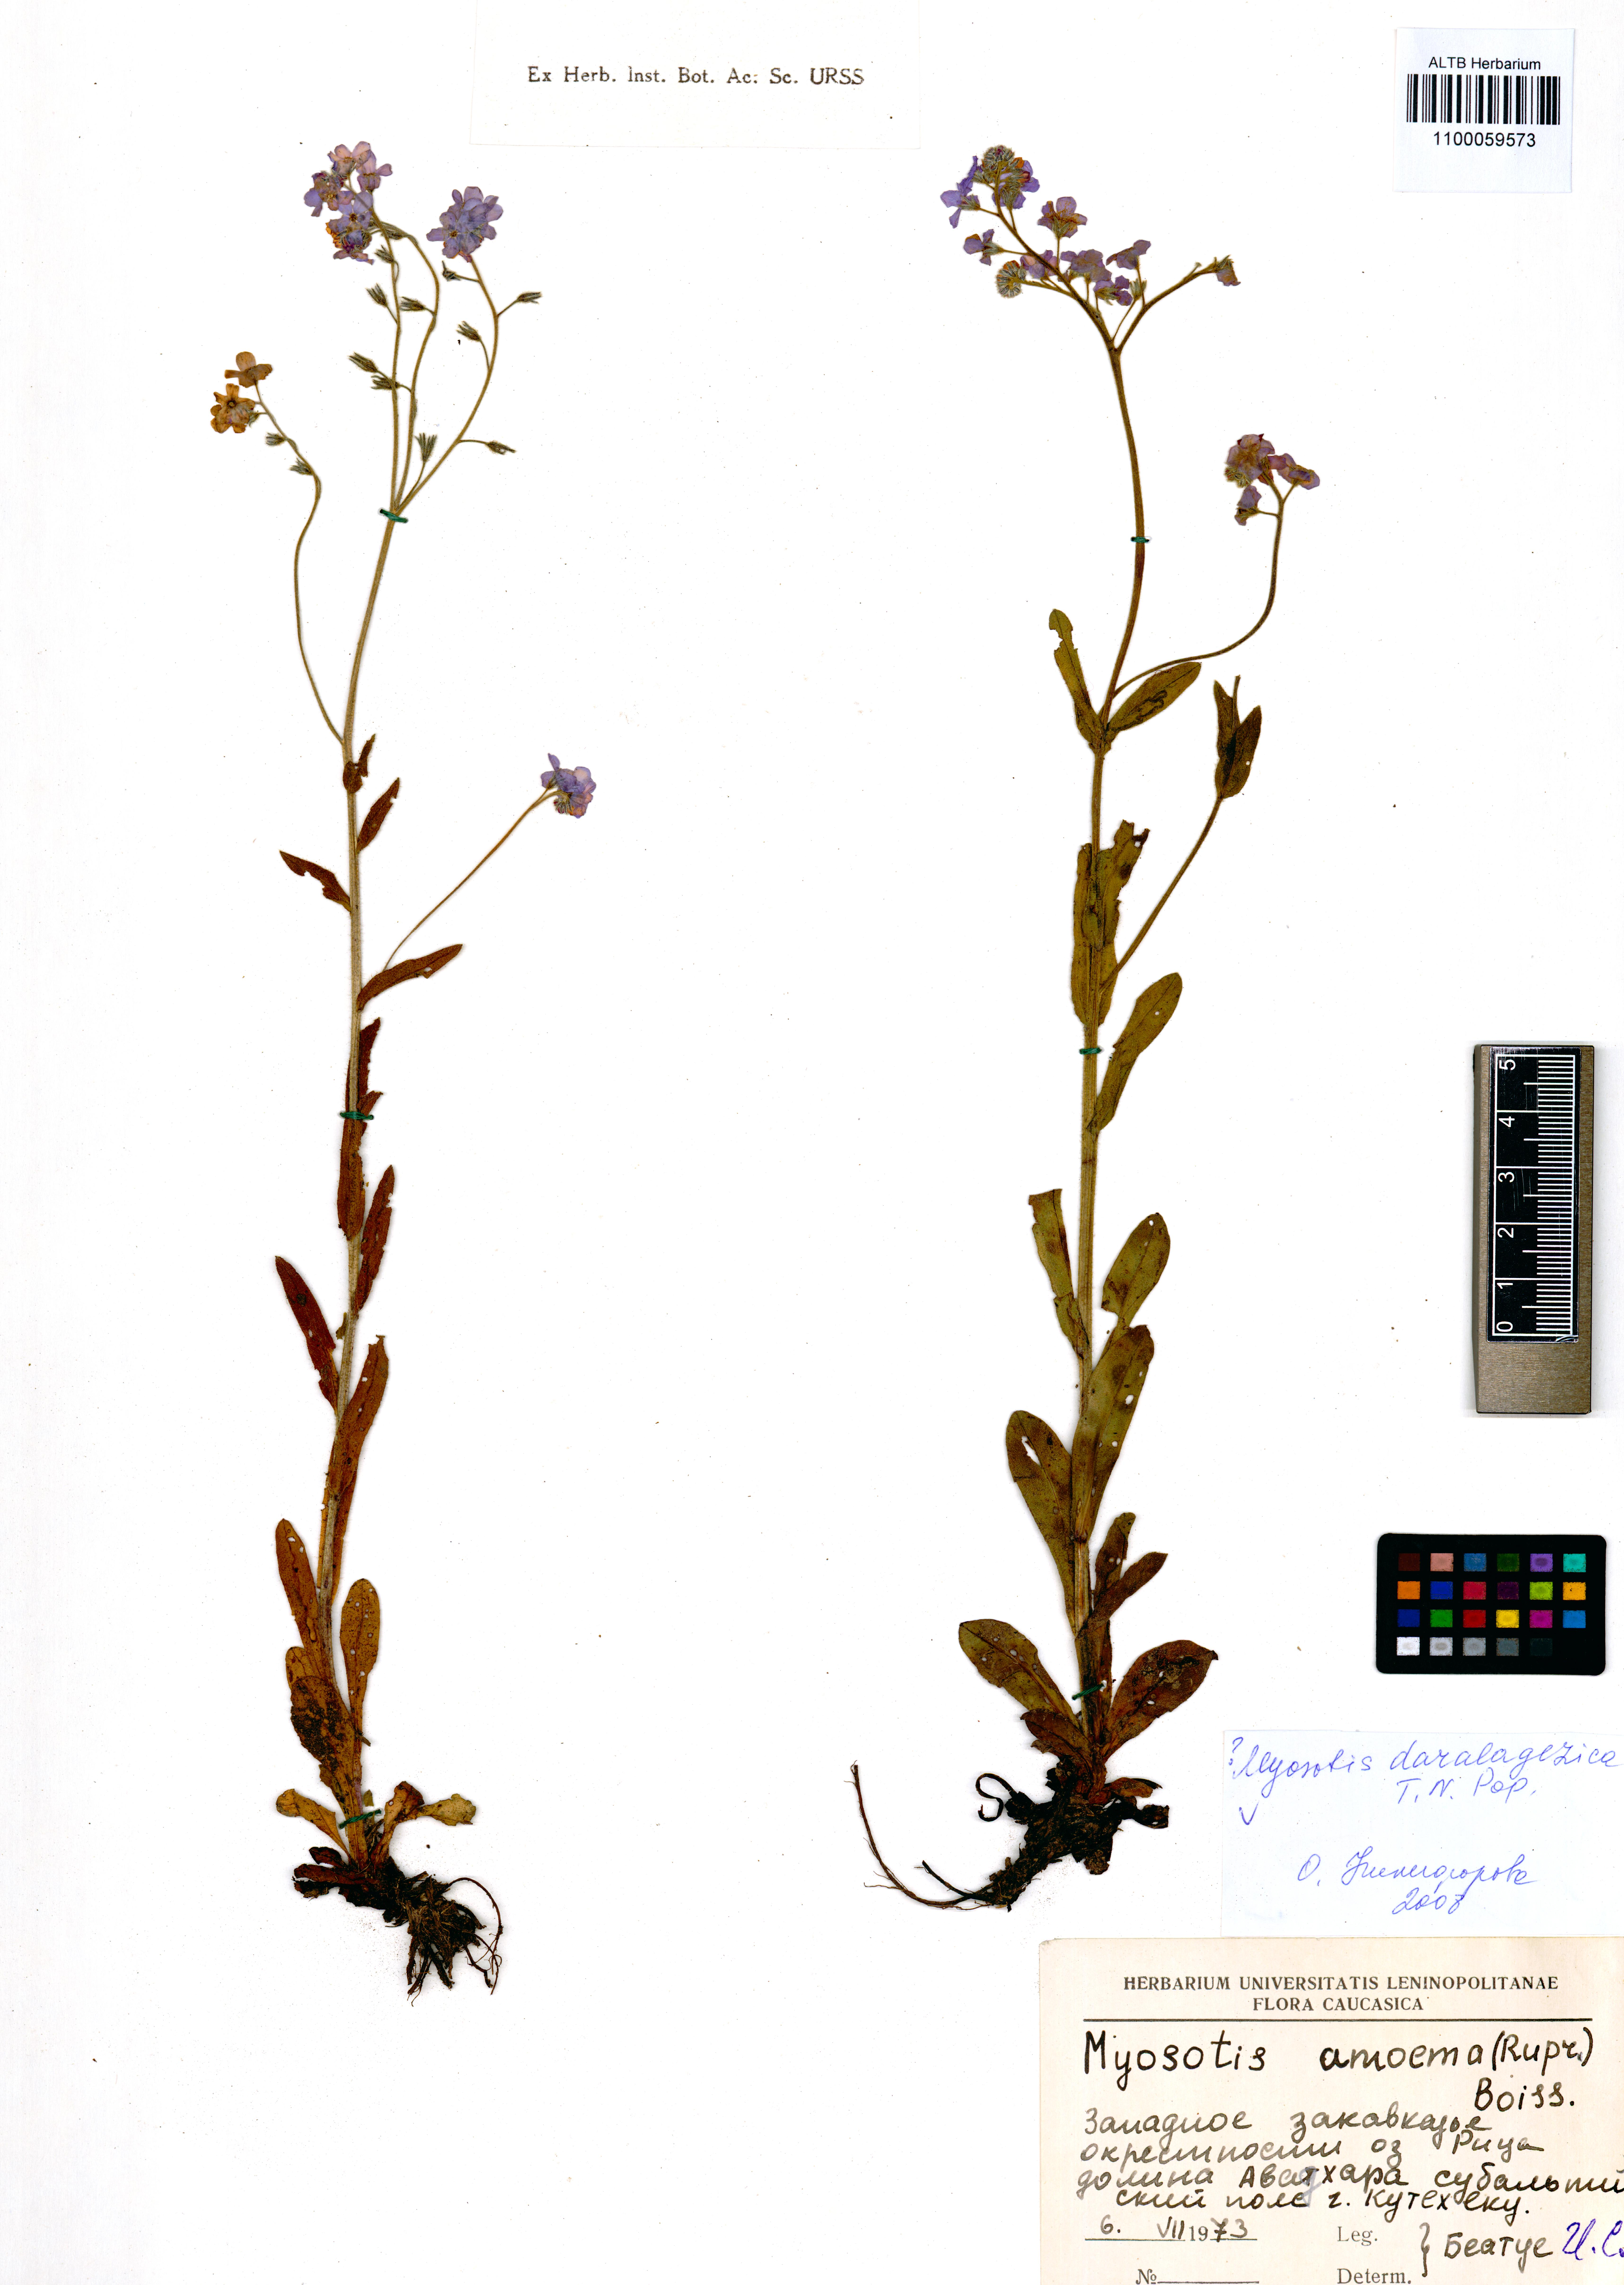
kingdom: Plantae
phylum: Tracheophyta
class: Magnoliopsida
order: Boraginales
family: Boraginaceae
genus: Myosotis
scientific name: Myosotis daralaghezica
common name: Daralagezian forget-me-not
